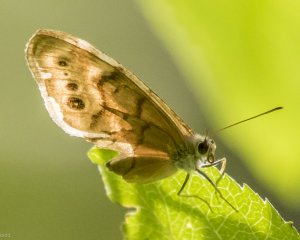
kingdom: Animalia
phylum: Arthropoda
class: Insecta
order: Lepidoptera
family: Nymphalidae
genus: Lethe
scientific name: Lethe anthedon
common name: Northern Pearly-Eye
